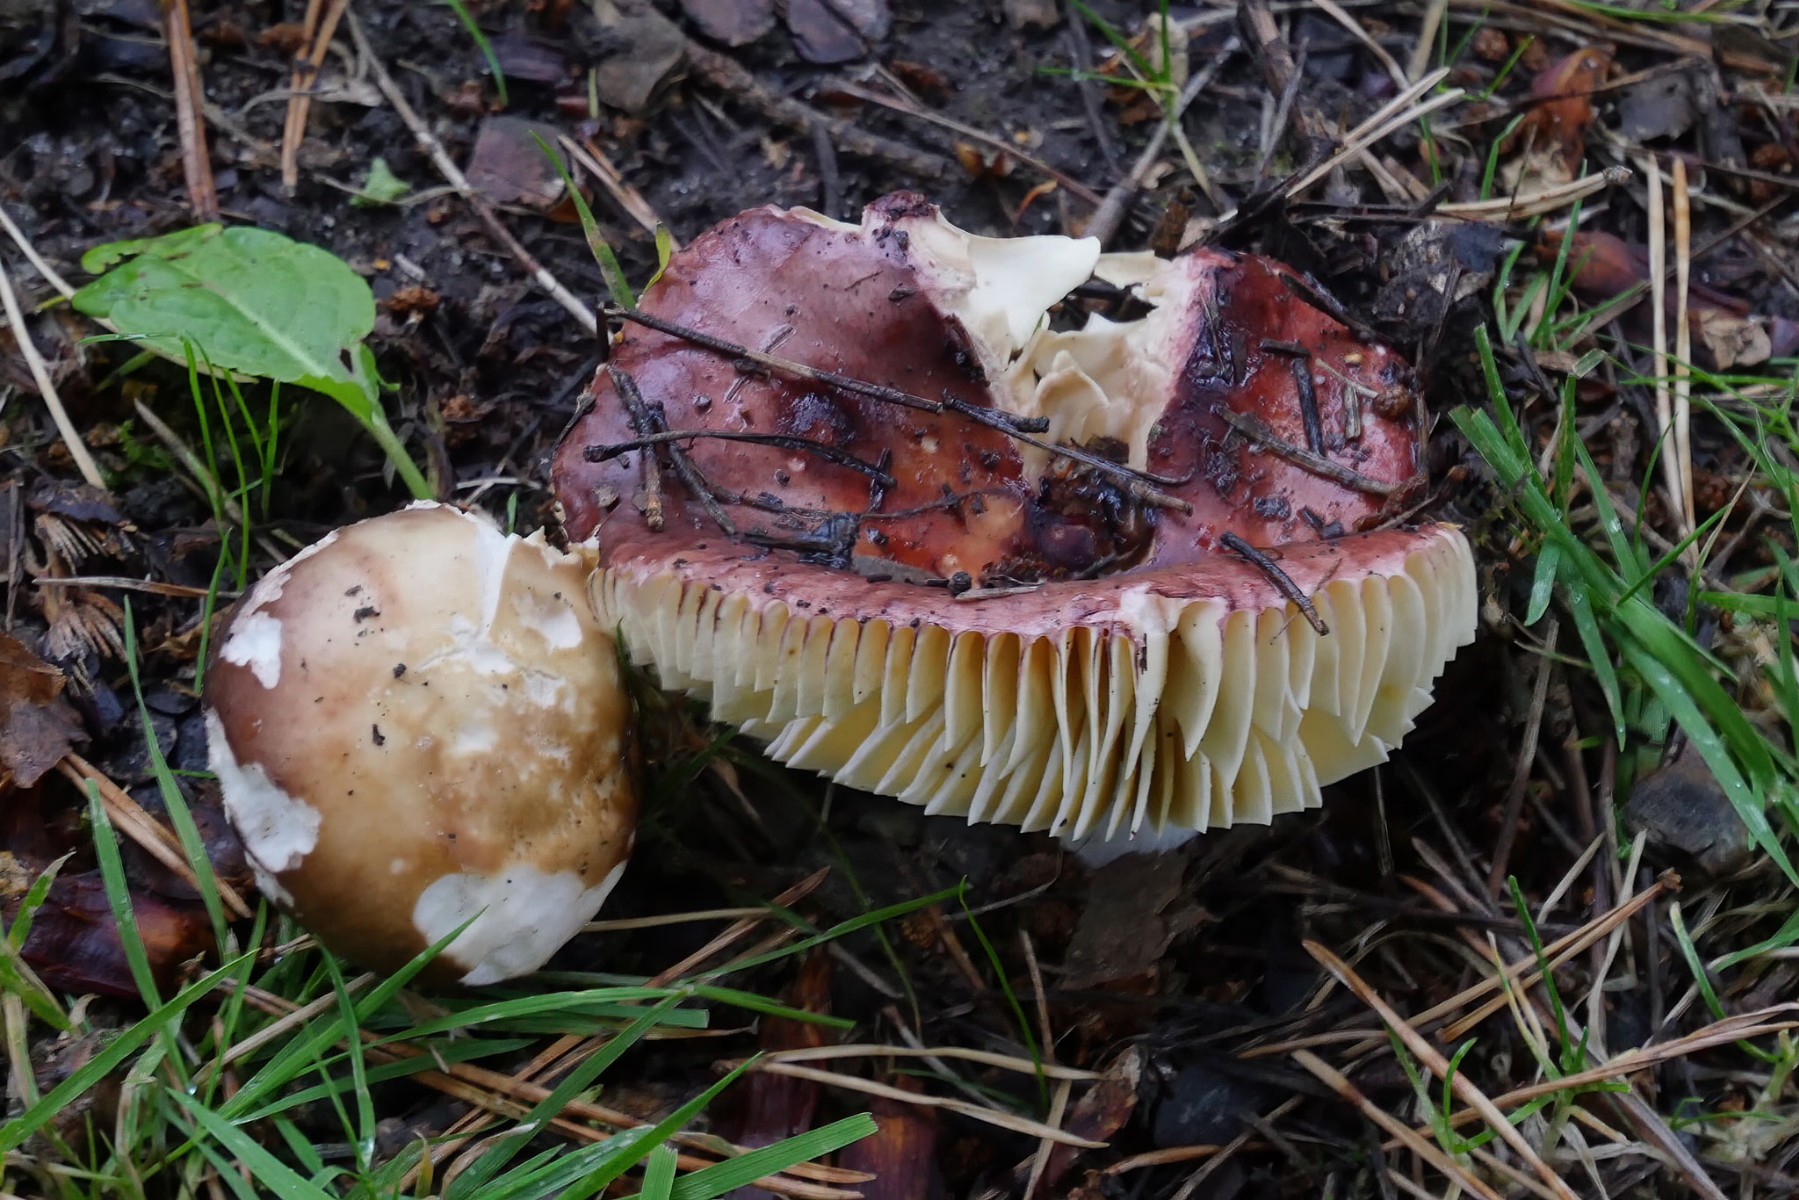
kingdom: Fungi
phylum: Basidiomycota
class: Agaricomycetes
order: Russulales
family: Russulaceae
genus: Russula
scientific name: Russula integra
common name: mandel-skørhat
